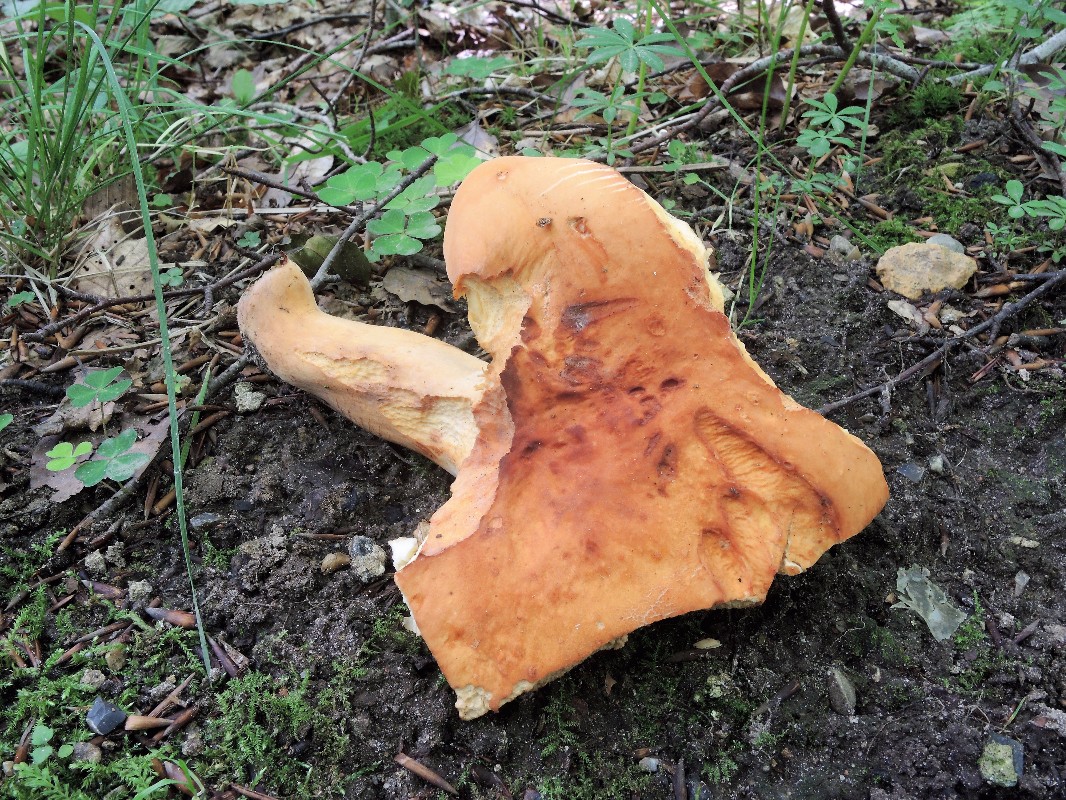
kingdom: Fungi
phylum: Basidiomycota
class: Agaricomycetes
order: Russulales
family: Russulaceae
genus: Lactifluus
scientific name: Lactifluus volemus
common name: spiselig mælkehat
